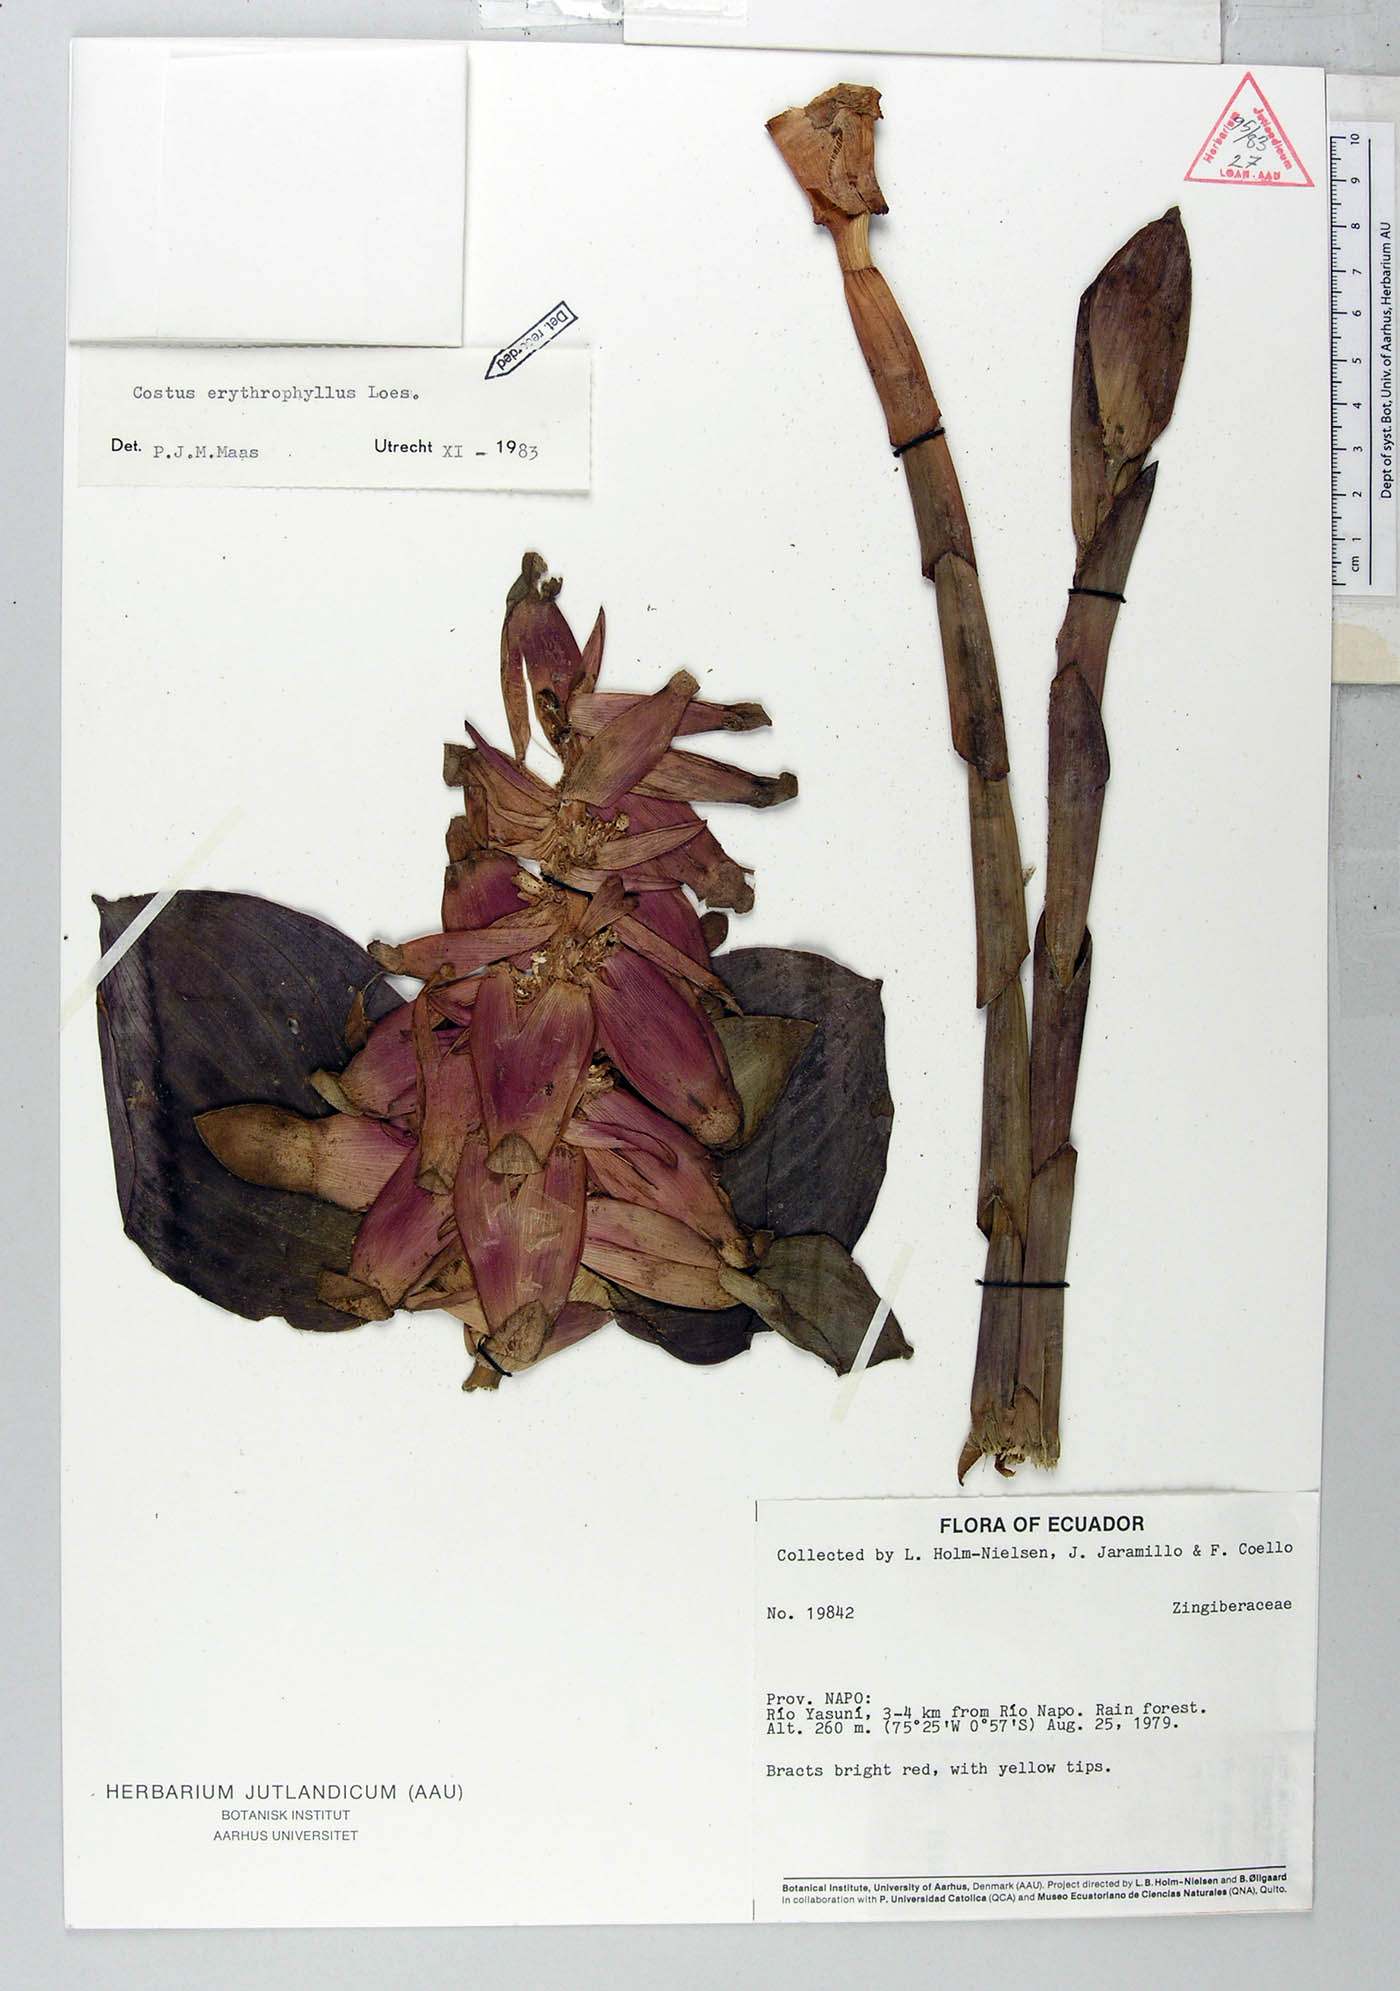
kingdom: Plantae
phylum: Tracheophyta
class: Liliopsida
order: Zingiberales
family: Costaceae
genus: Costus
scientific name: Costus erythrophyllus
